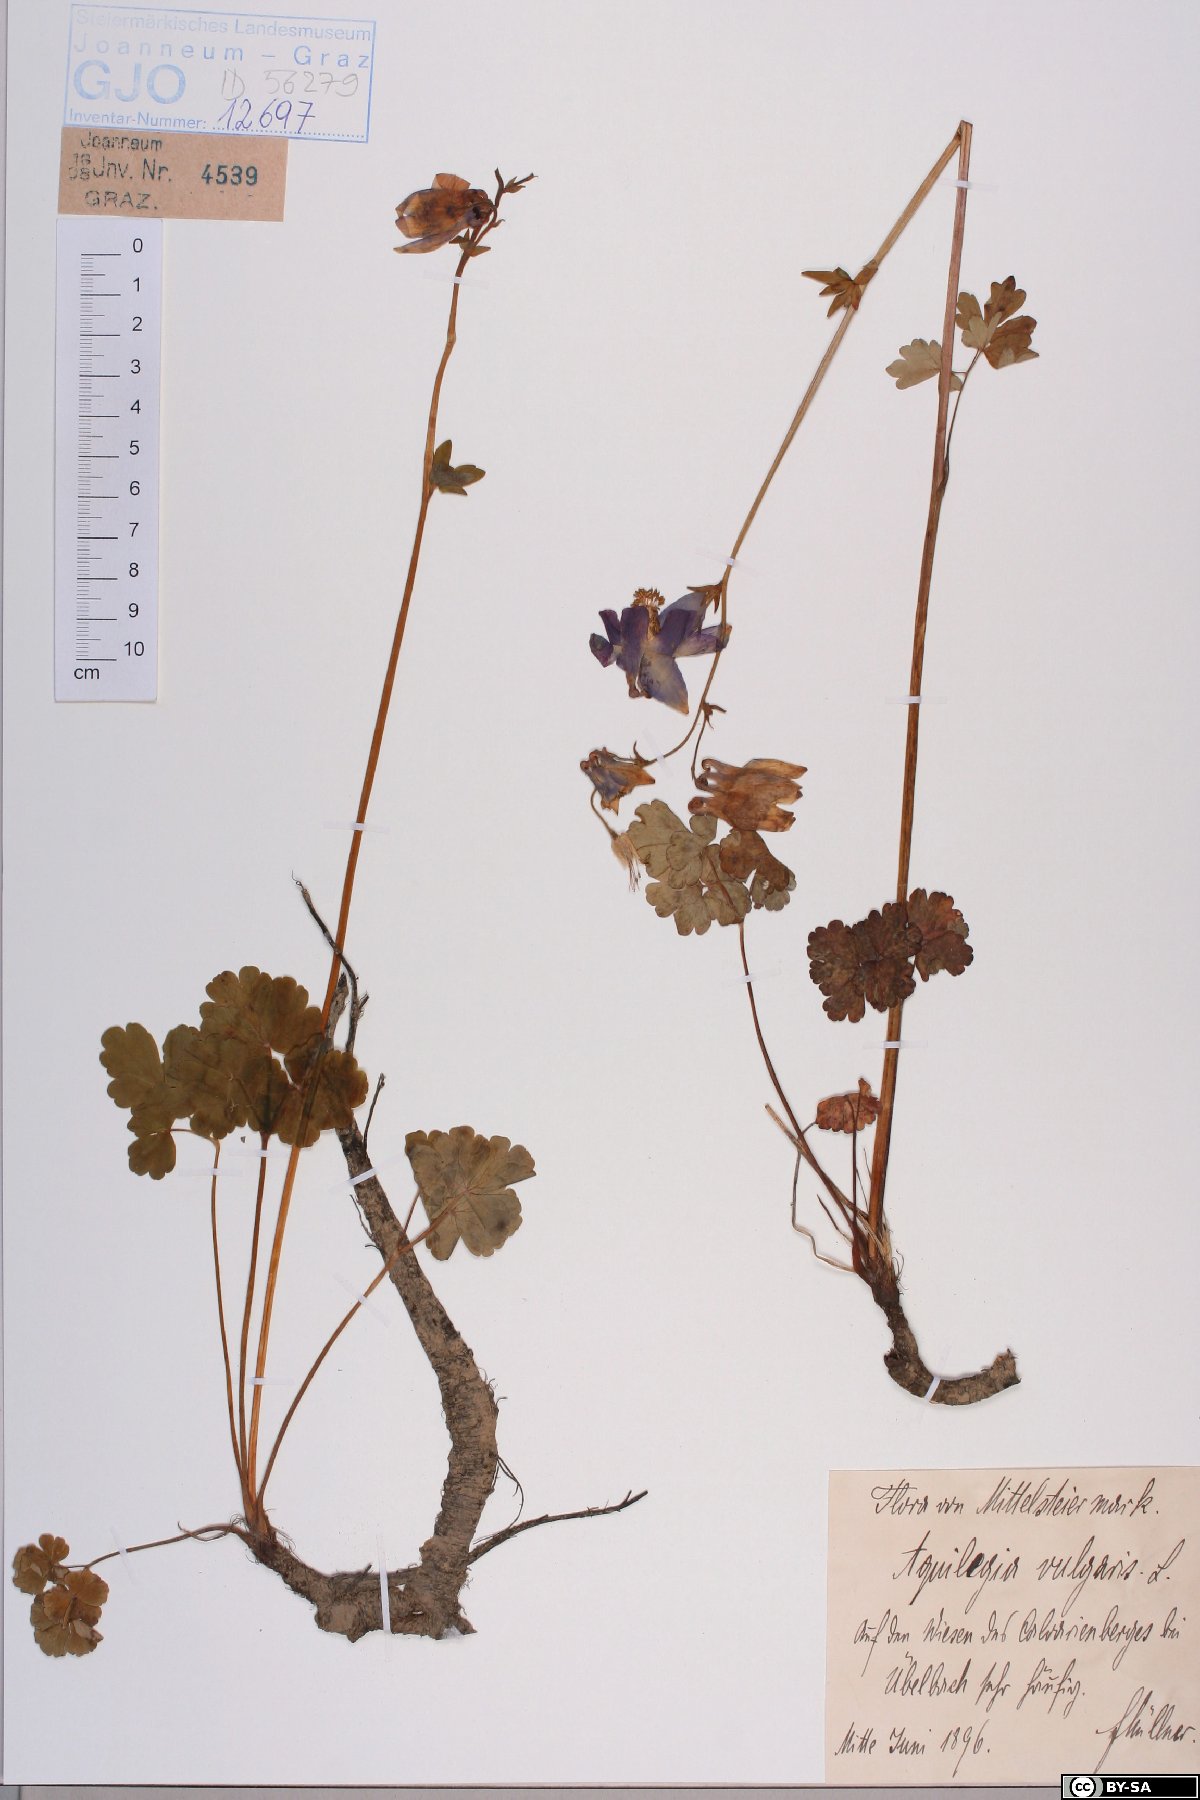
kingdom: Plantae
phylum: Tracheophyta
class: Magnoliopsida
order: Ranunculales
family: Ranunculaceae
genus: Aquilegia
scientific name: Aquilegia vulgaris
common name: Columbine
